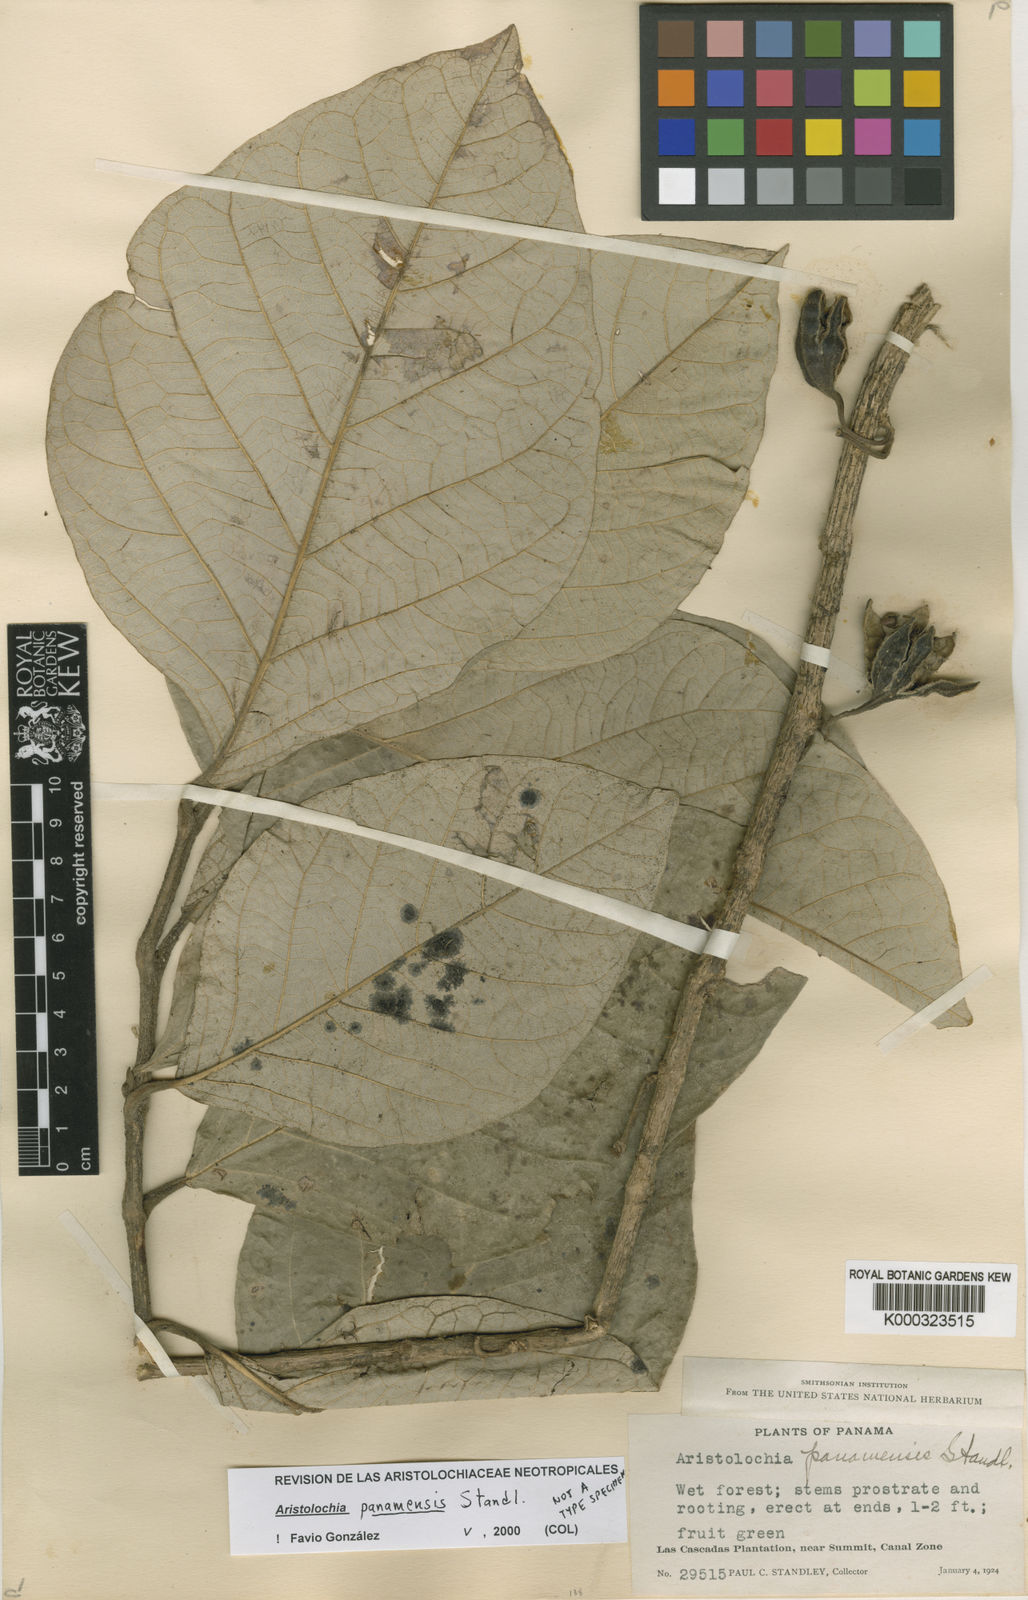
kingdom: Plantae
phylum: Tracheophyta
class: Magnoliopsida
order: Piperales
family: Aristolochiaceae
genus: Isotrema
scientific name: Isotrema panamense
